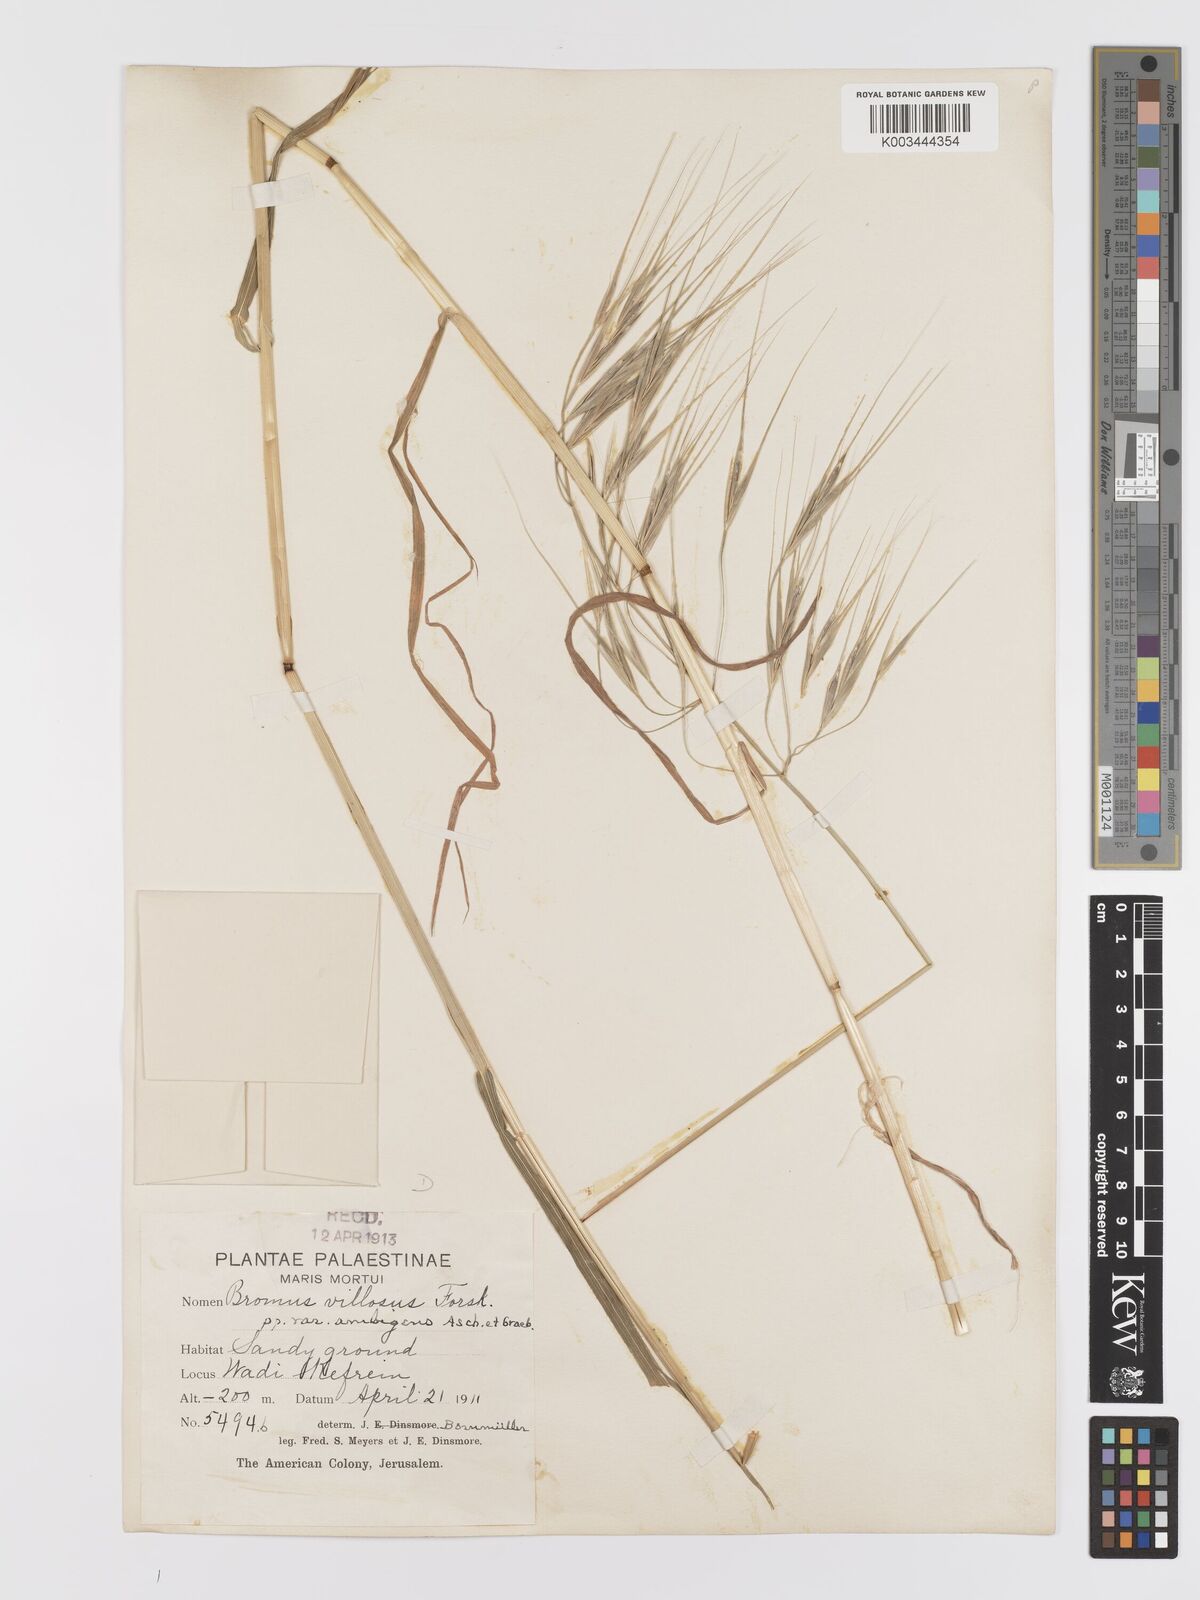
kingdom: Plantae
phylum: Tracheophyta
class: Liliopsida
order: Poales
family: Poaceae
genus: Bromus
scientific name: Bromus diandrus
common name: Ripgut brome
